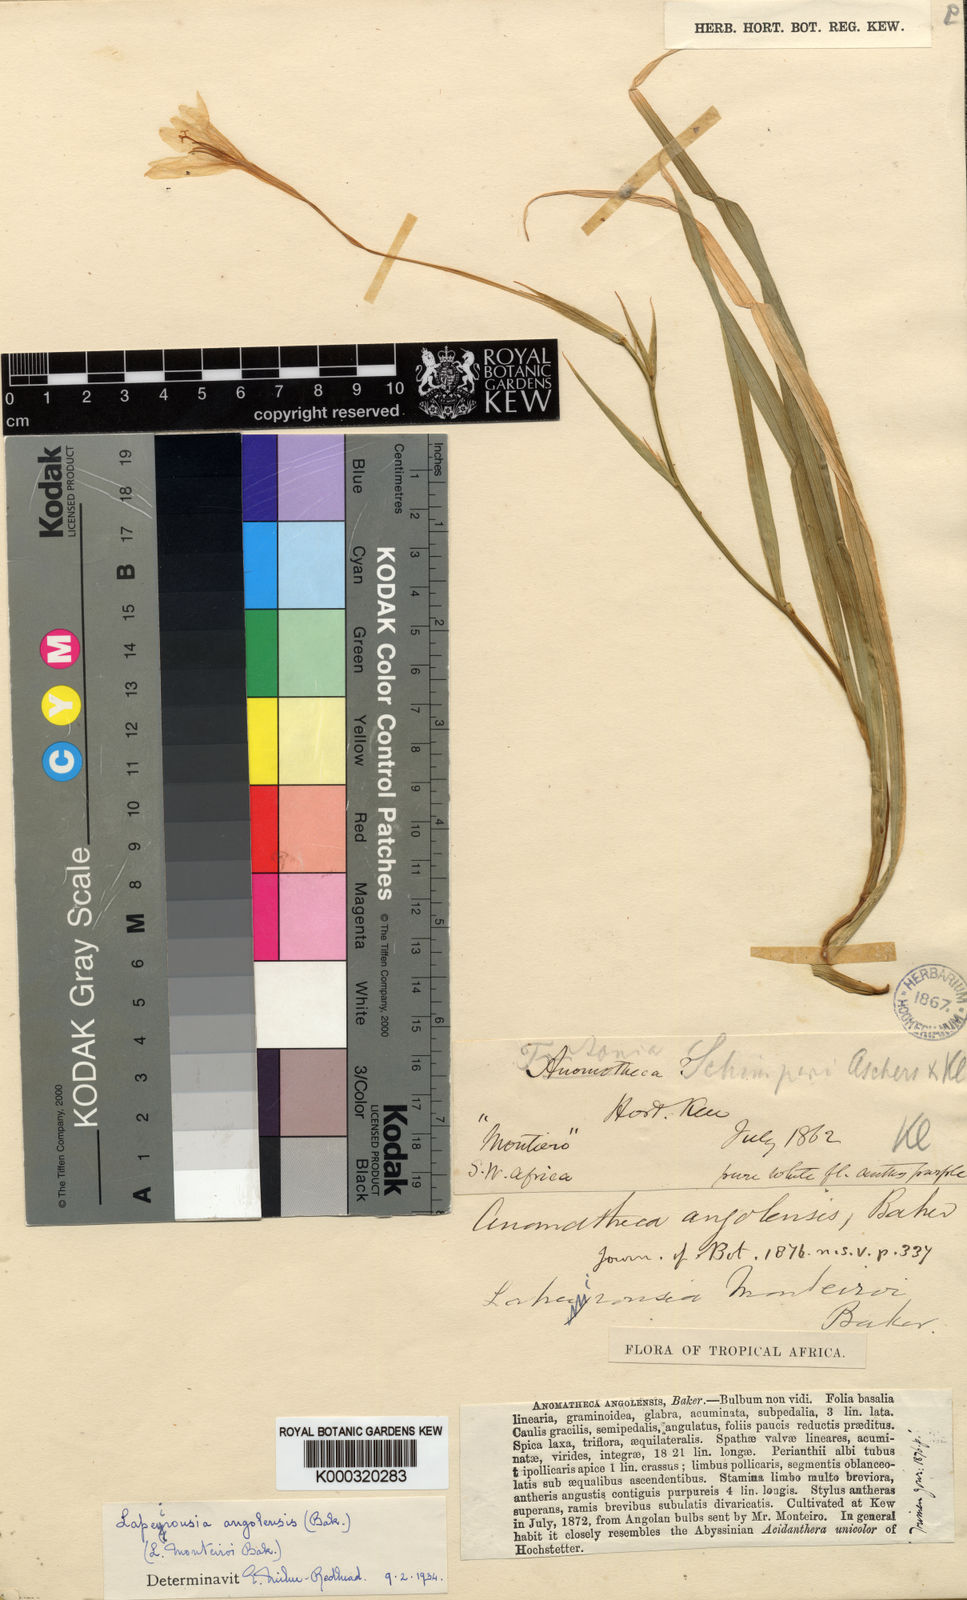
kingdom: Plantae
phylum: Tracheophyta
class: Liliopsida
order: Asparagales
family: Iridaceae
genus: Afrosolen
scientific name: Afrosolen schimperi
